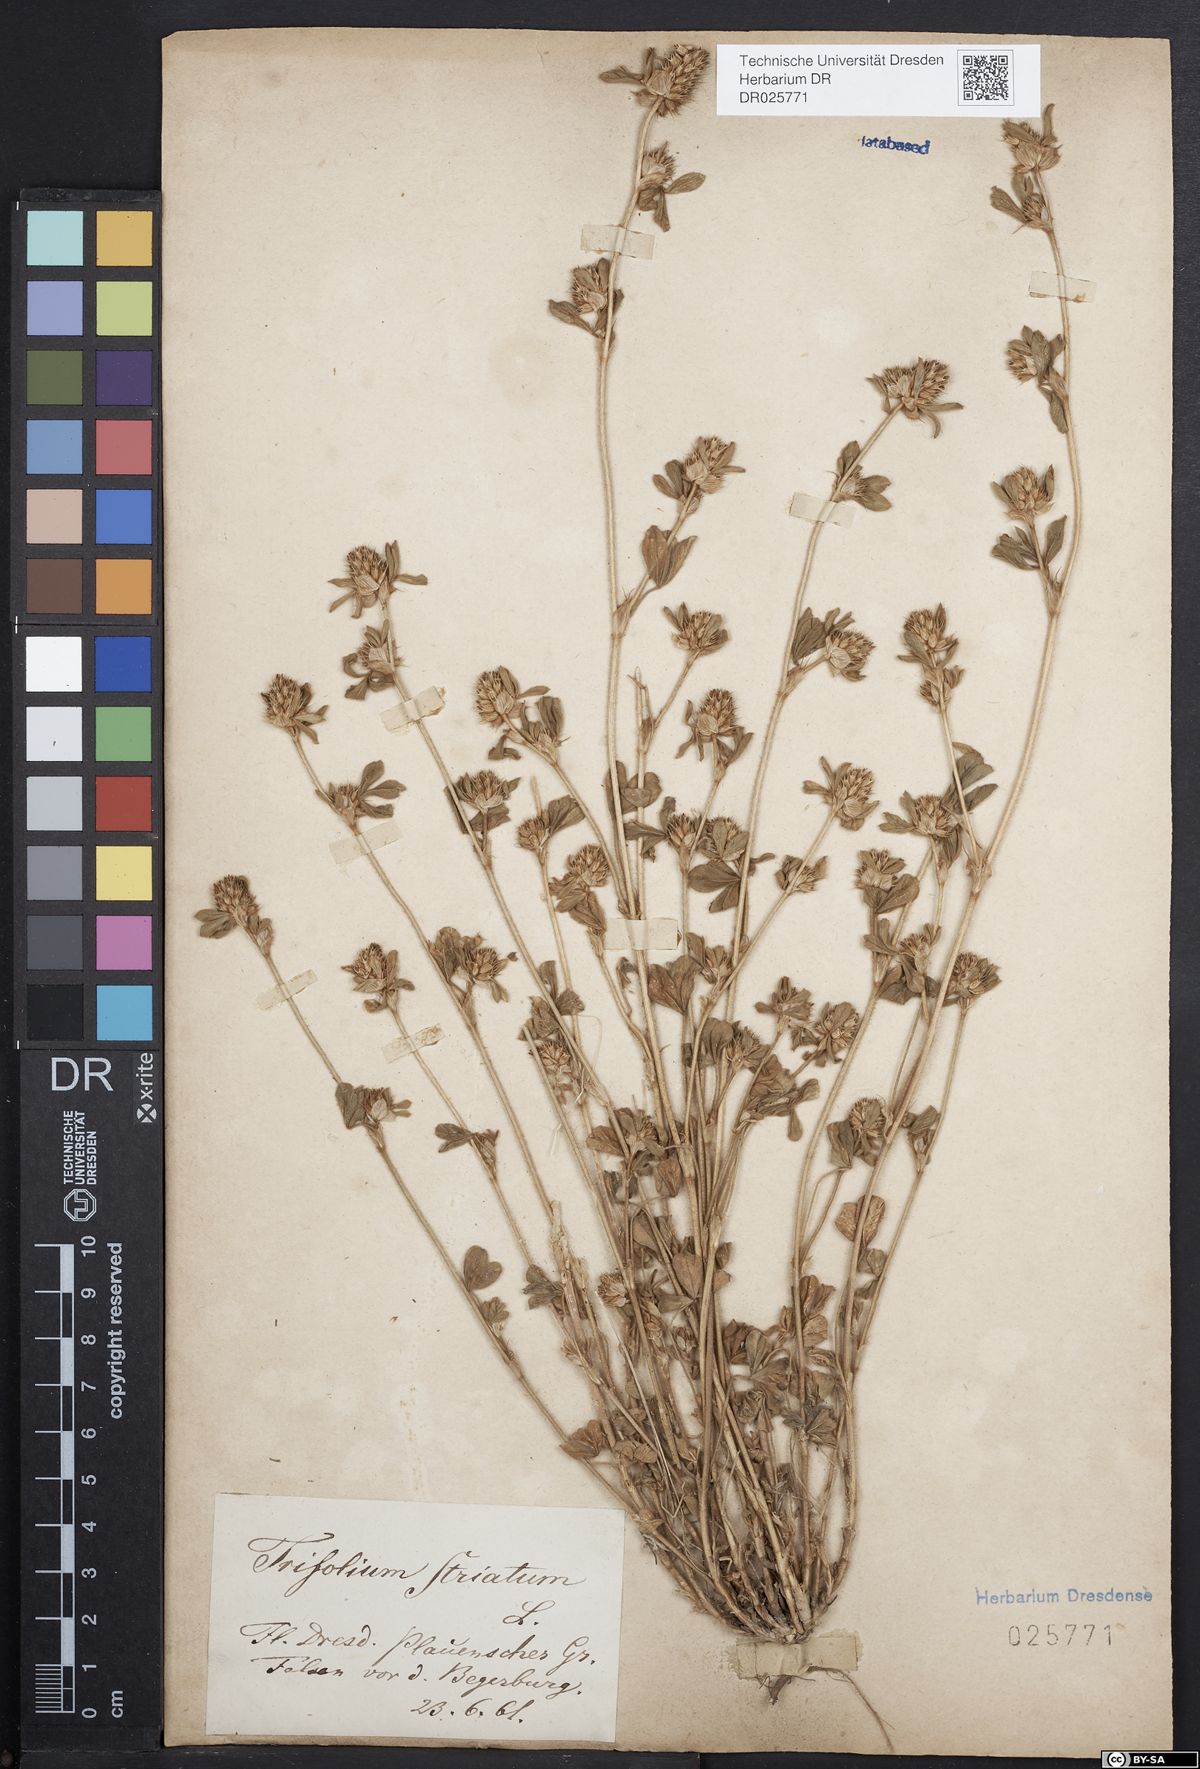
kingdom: Plantae
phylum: Tracheophyta
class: Magnoliopsida
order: Fabales
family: Fabaceae
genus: Trifolium
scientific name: Trifolium striatum
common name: Knotted clover
